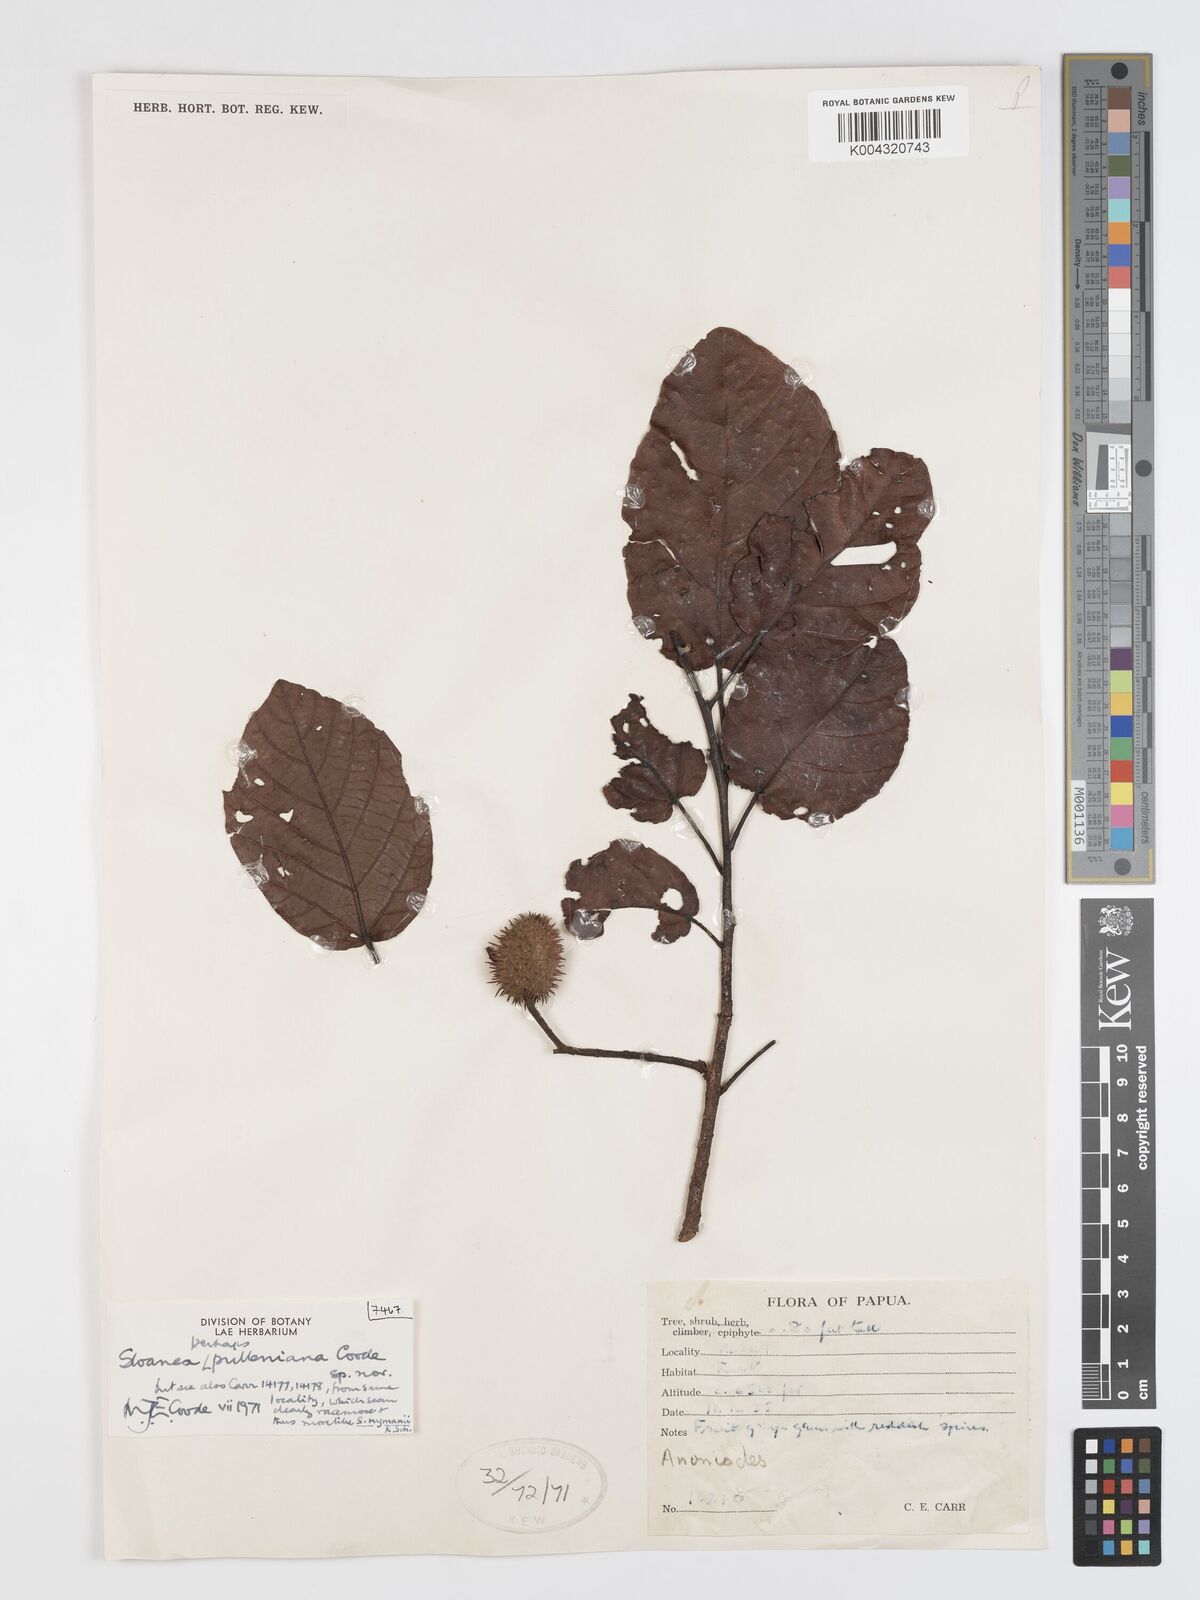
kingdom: Plantae
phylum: Tracheophyta
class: Magnoliopsida
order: Oxalidales
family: Elaeocarpaceae
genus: Sloanea
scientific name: Sloanea pulleniana
